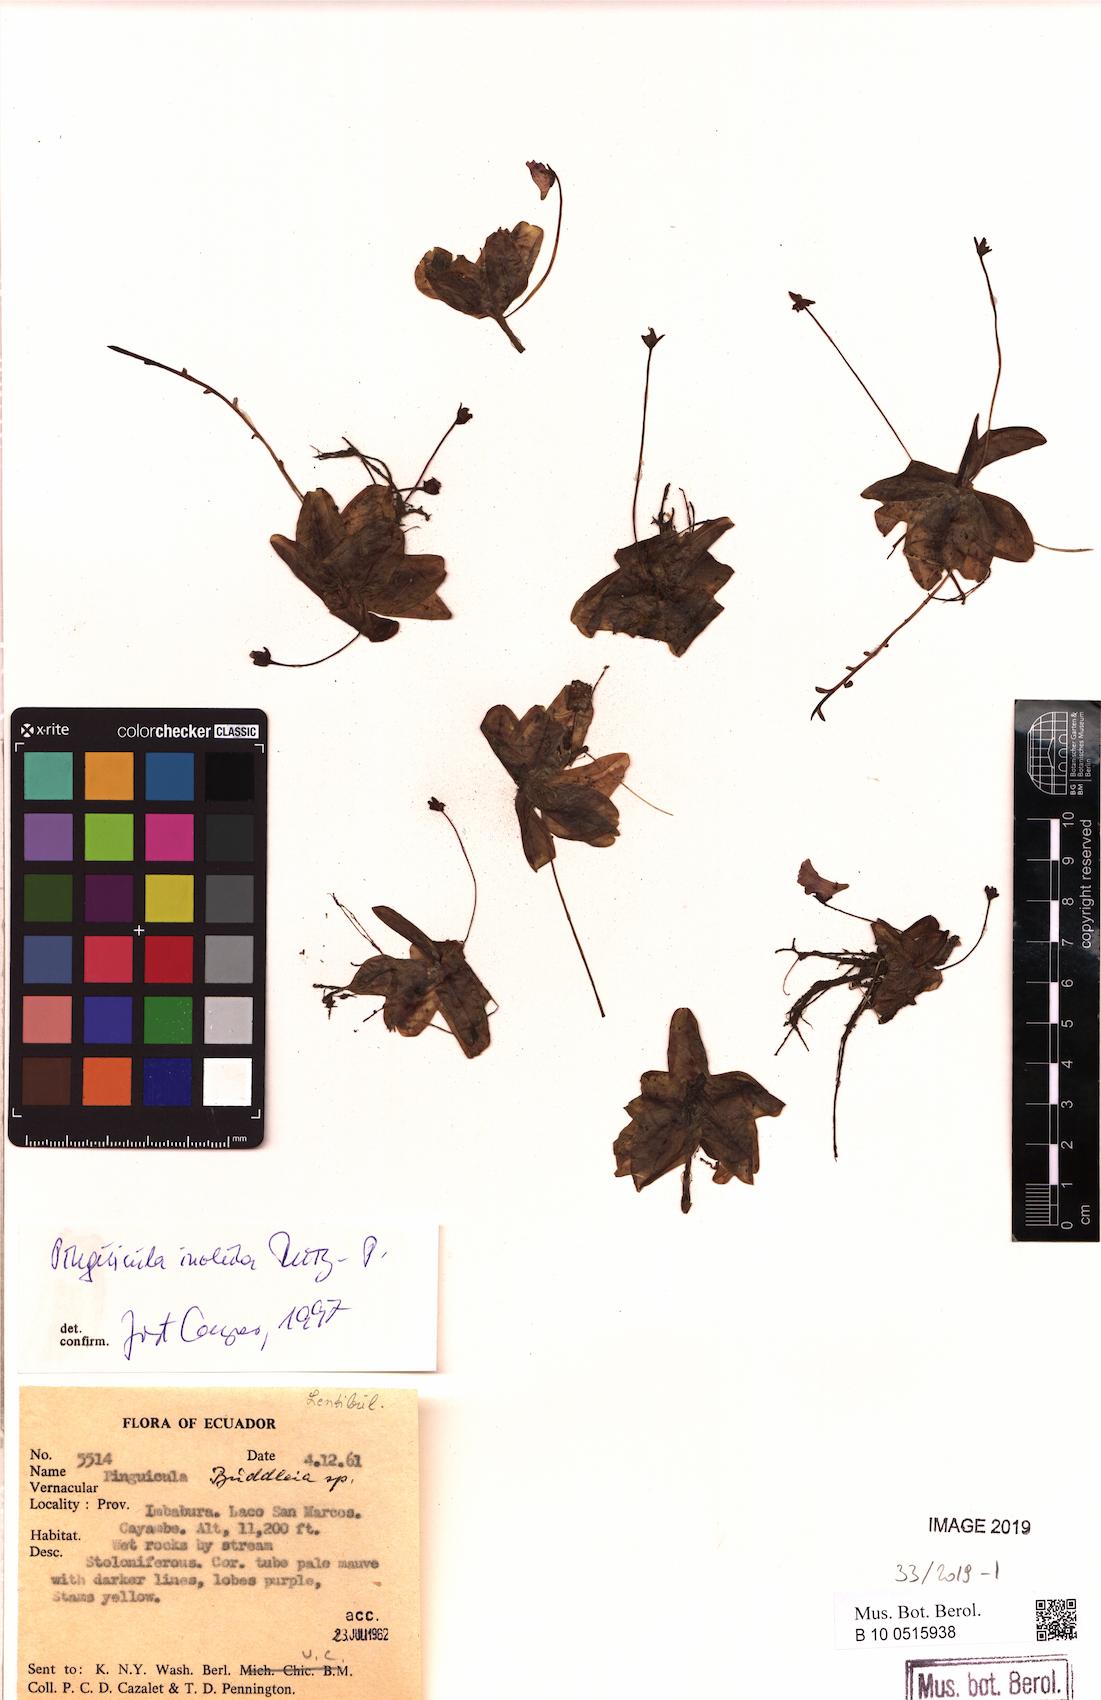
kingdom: Plantae
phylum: Tracheophyta
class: Magnoliopsida
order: Lamiales
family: Lentibulariaceae
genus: Pinguicula
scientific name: Pinguicula calyptrata
